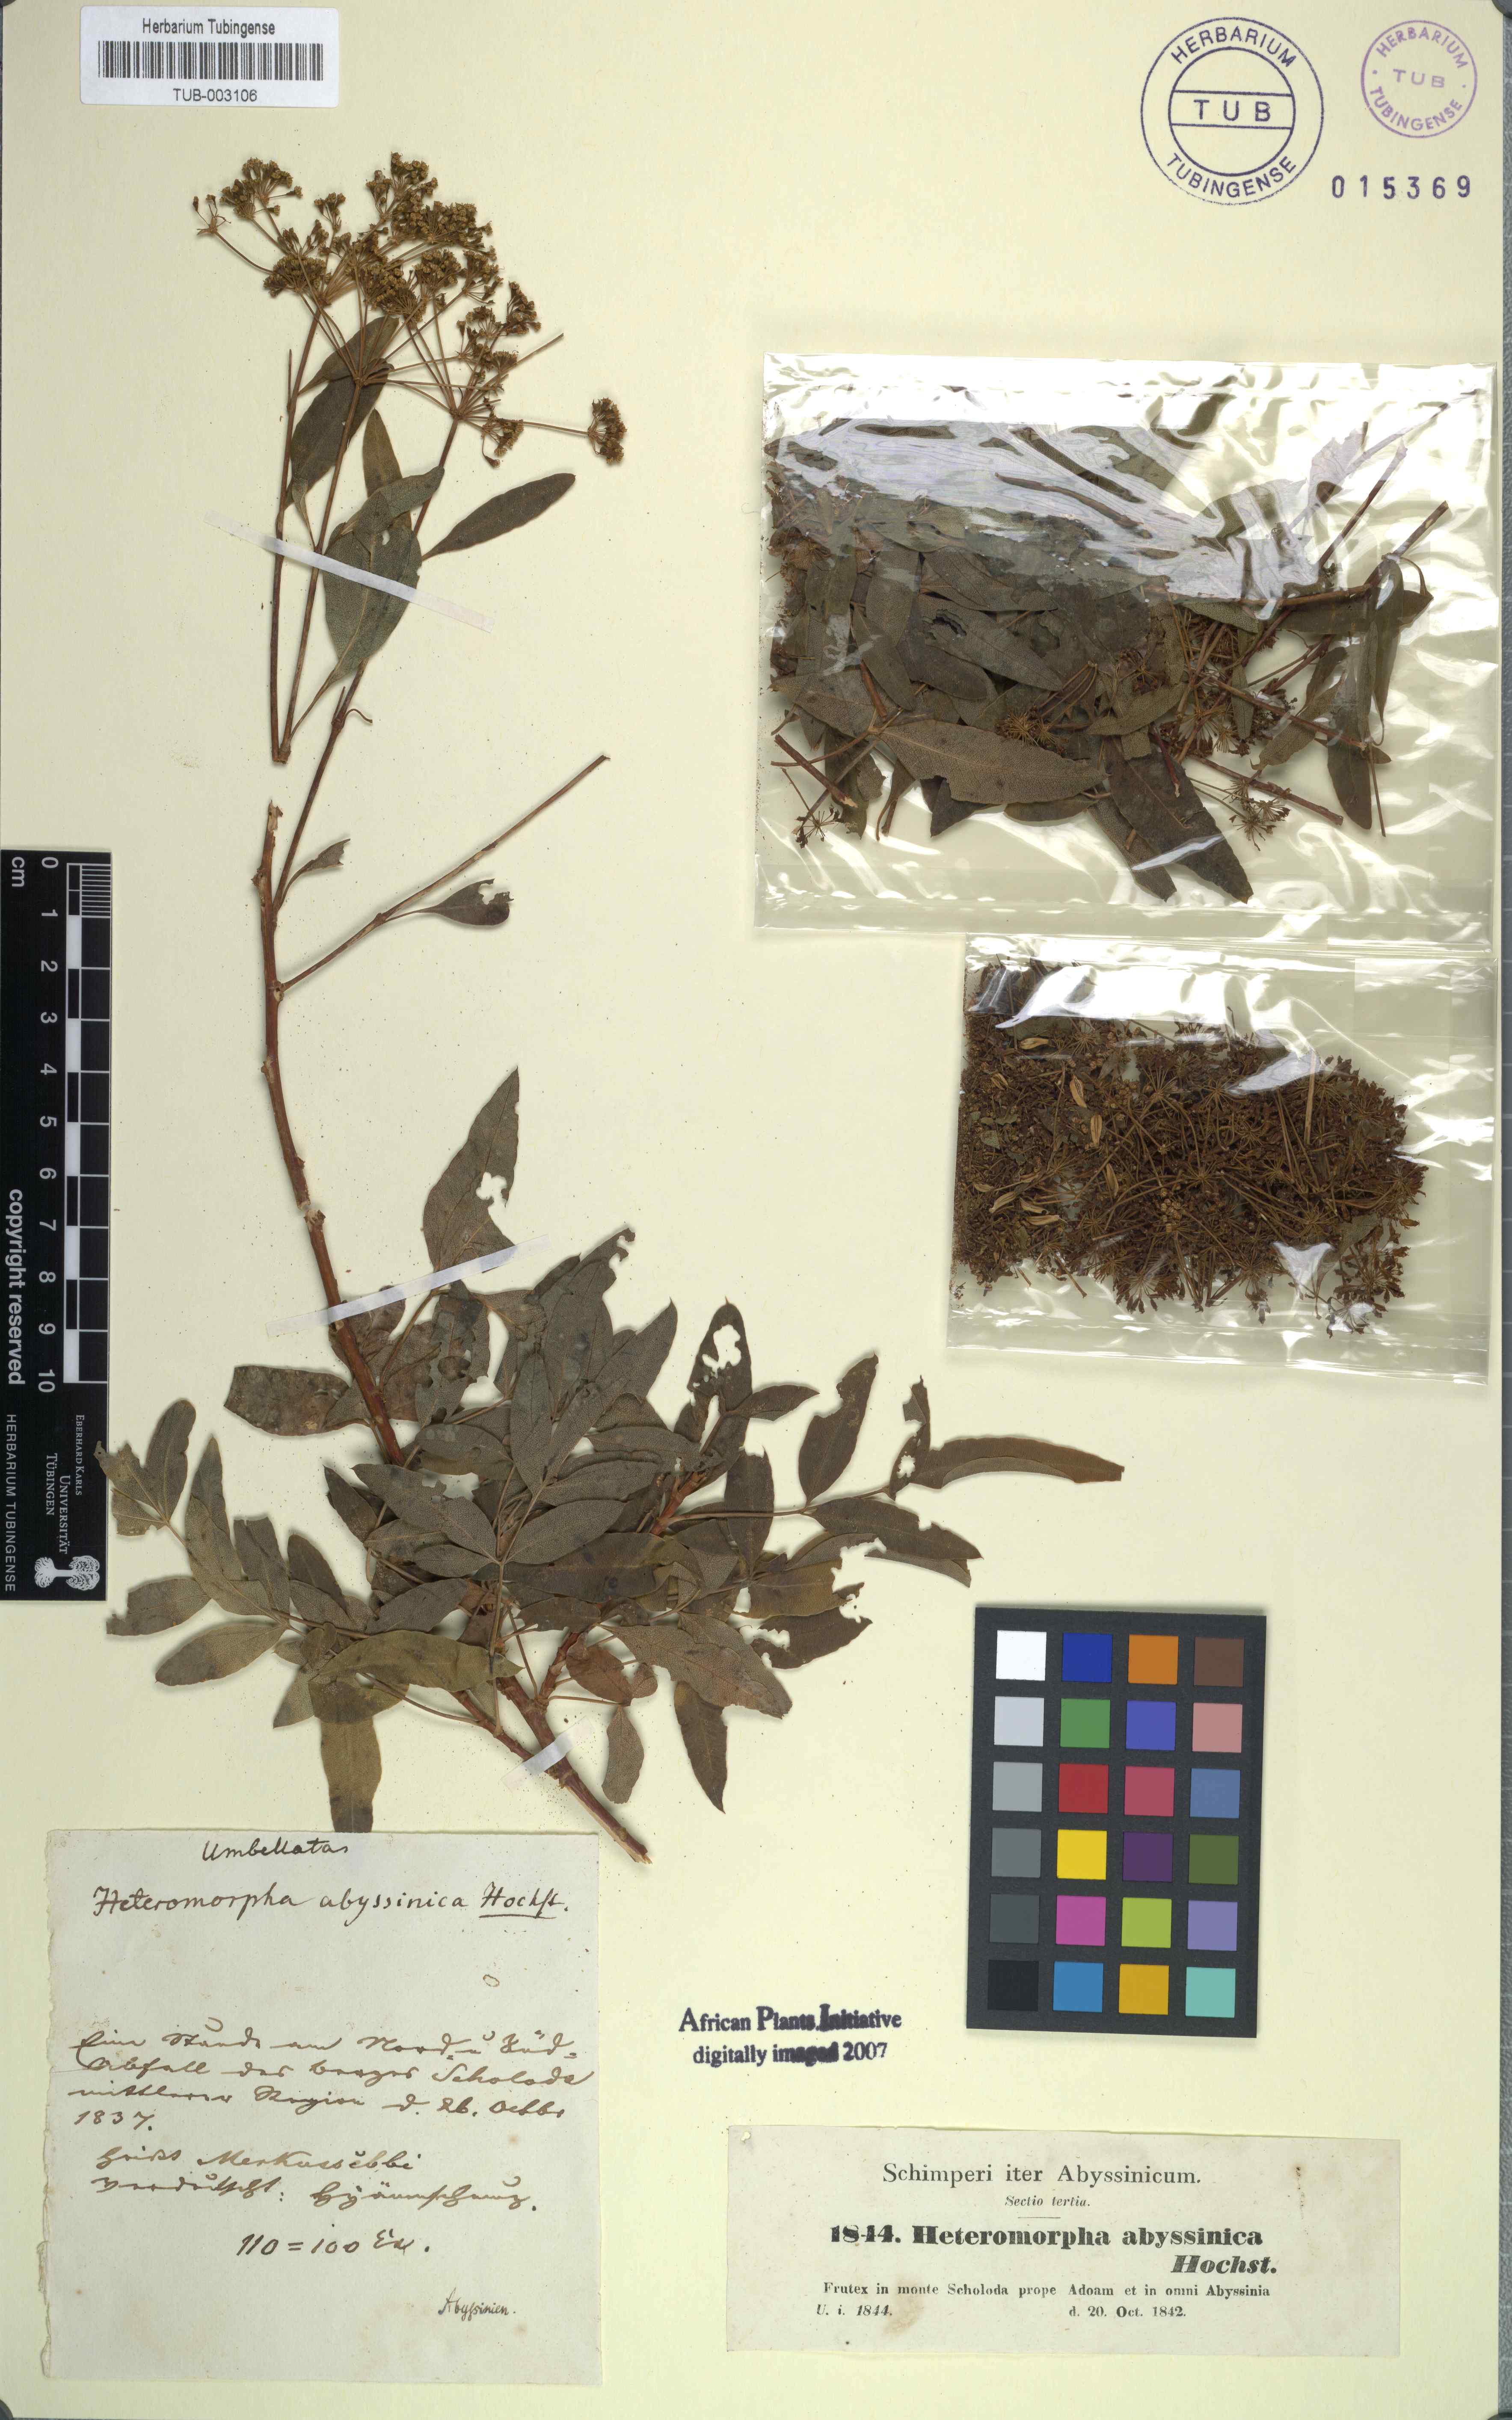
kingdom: Plantae
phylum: Tracheophyta
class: Magnoliopsida
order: Apiales
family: Apiaceae
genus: Heteromorpha
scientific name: Heteromorpha arborescens
